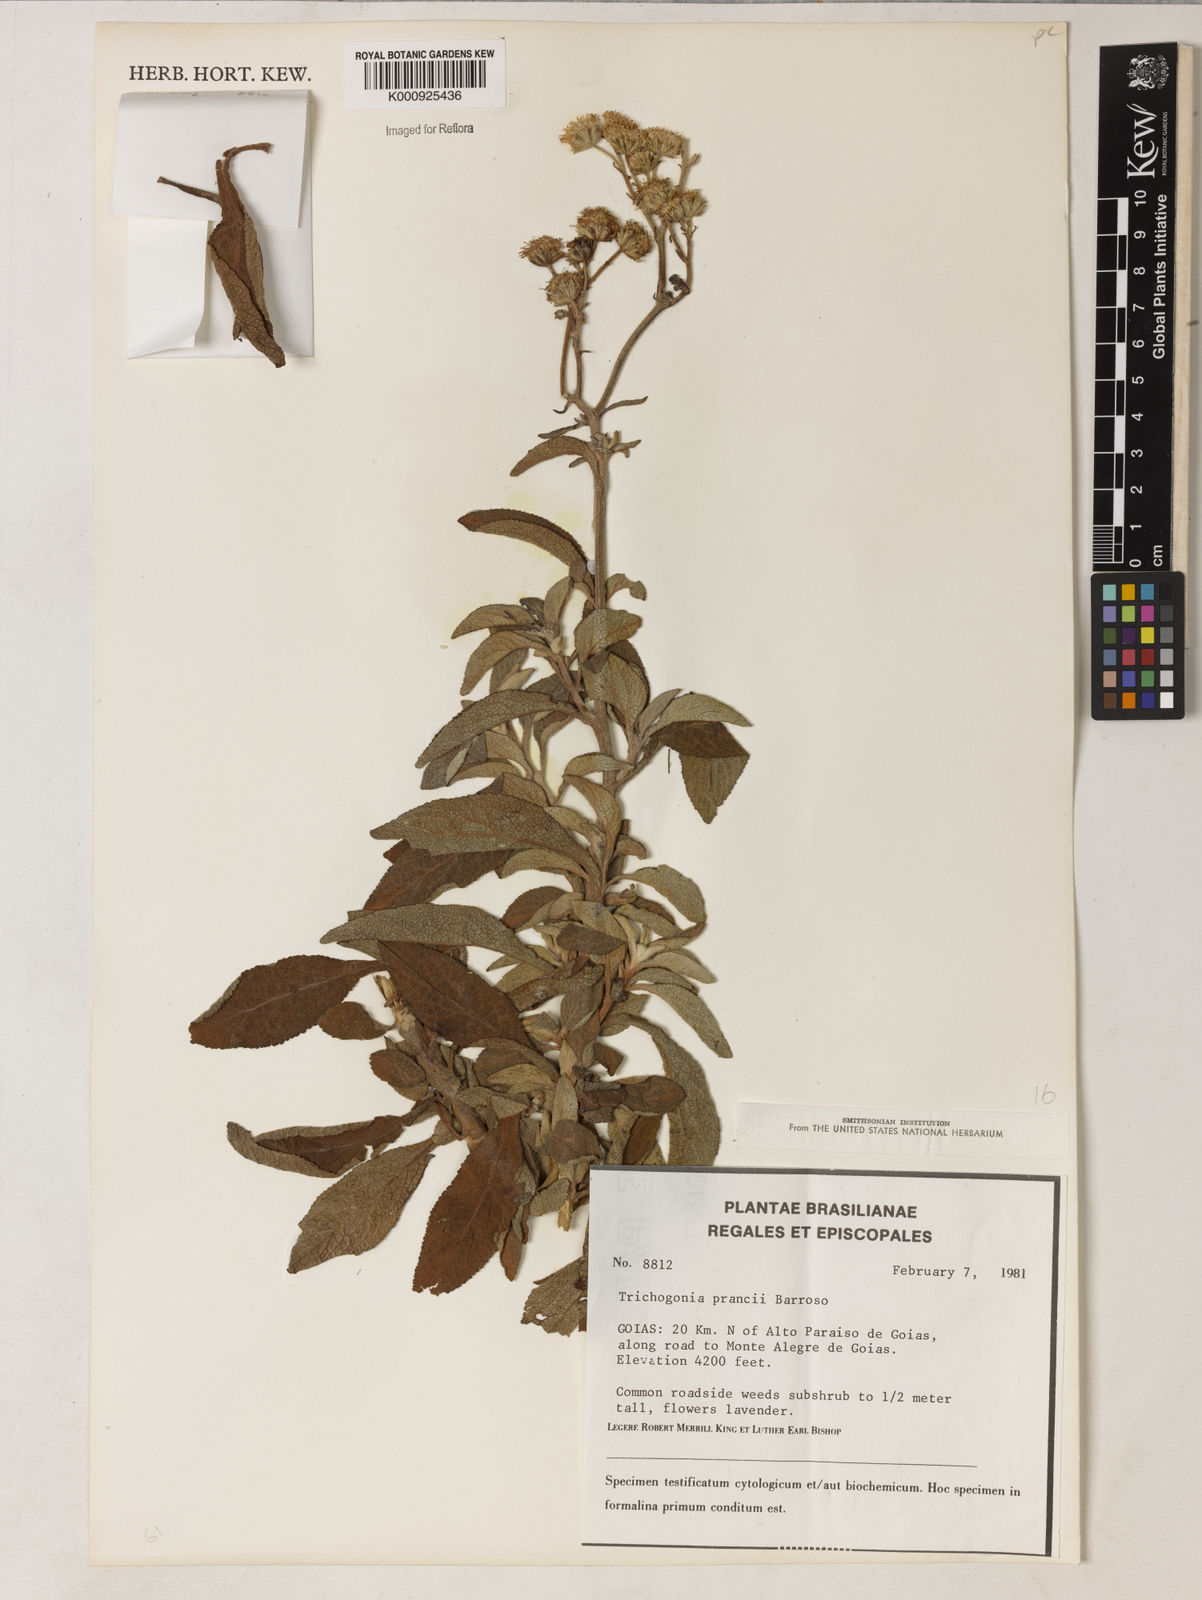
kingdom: Plantae
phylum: Tracheophyta
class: Magnoliopsida
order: Asterales
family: Asteraceae
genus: Trichogonia
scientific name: Trichogonia prancei
